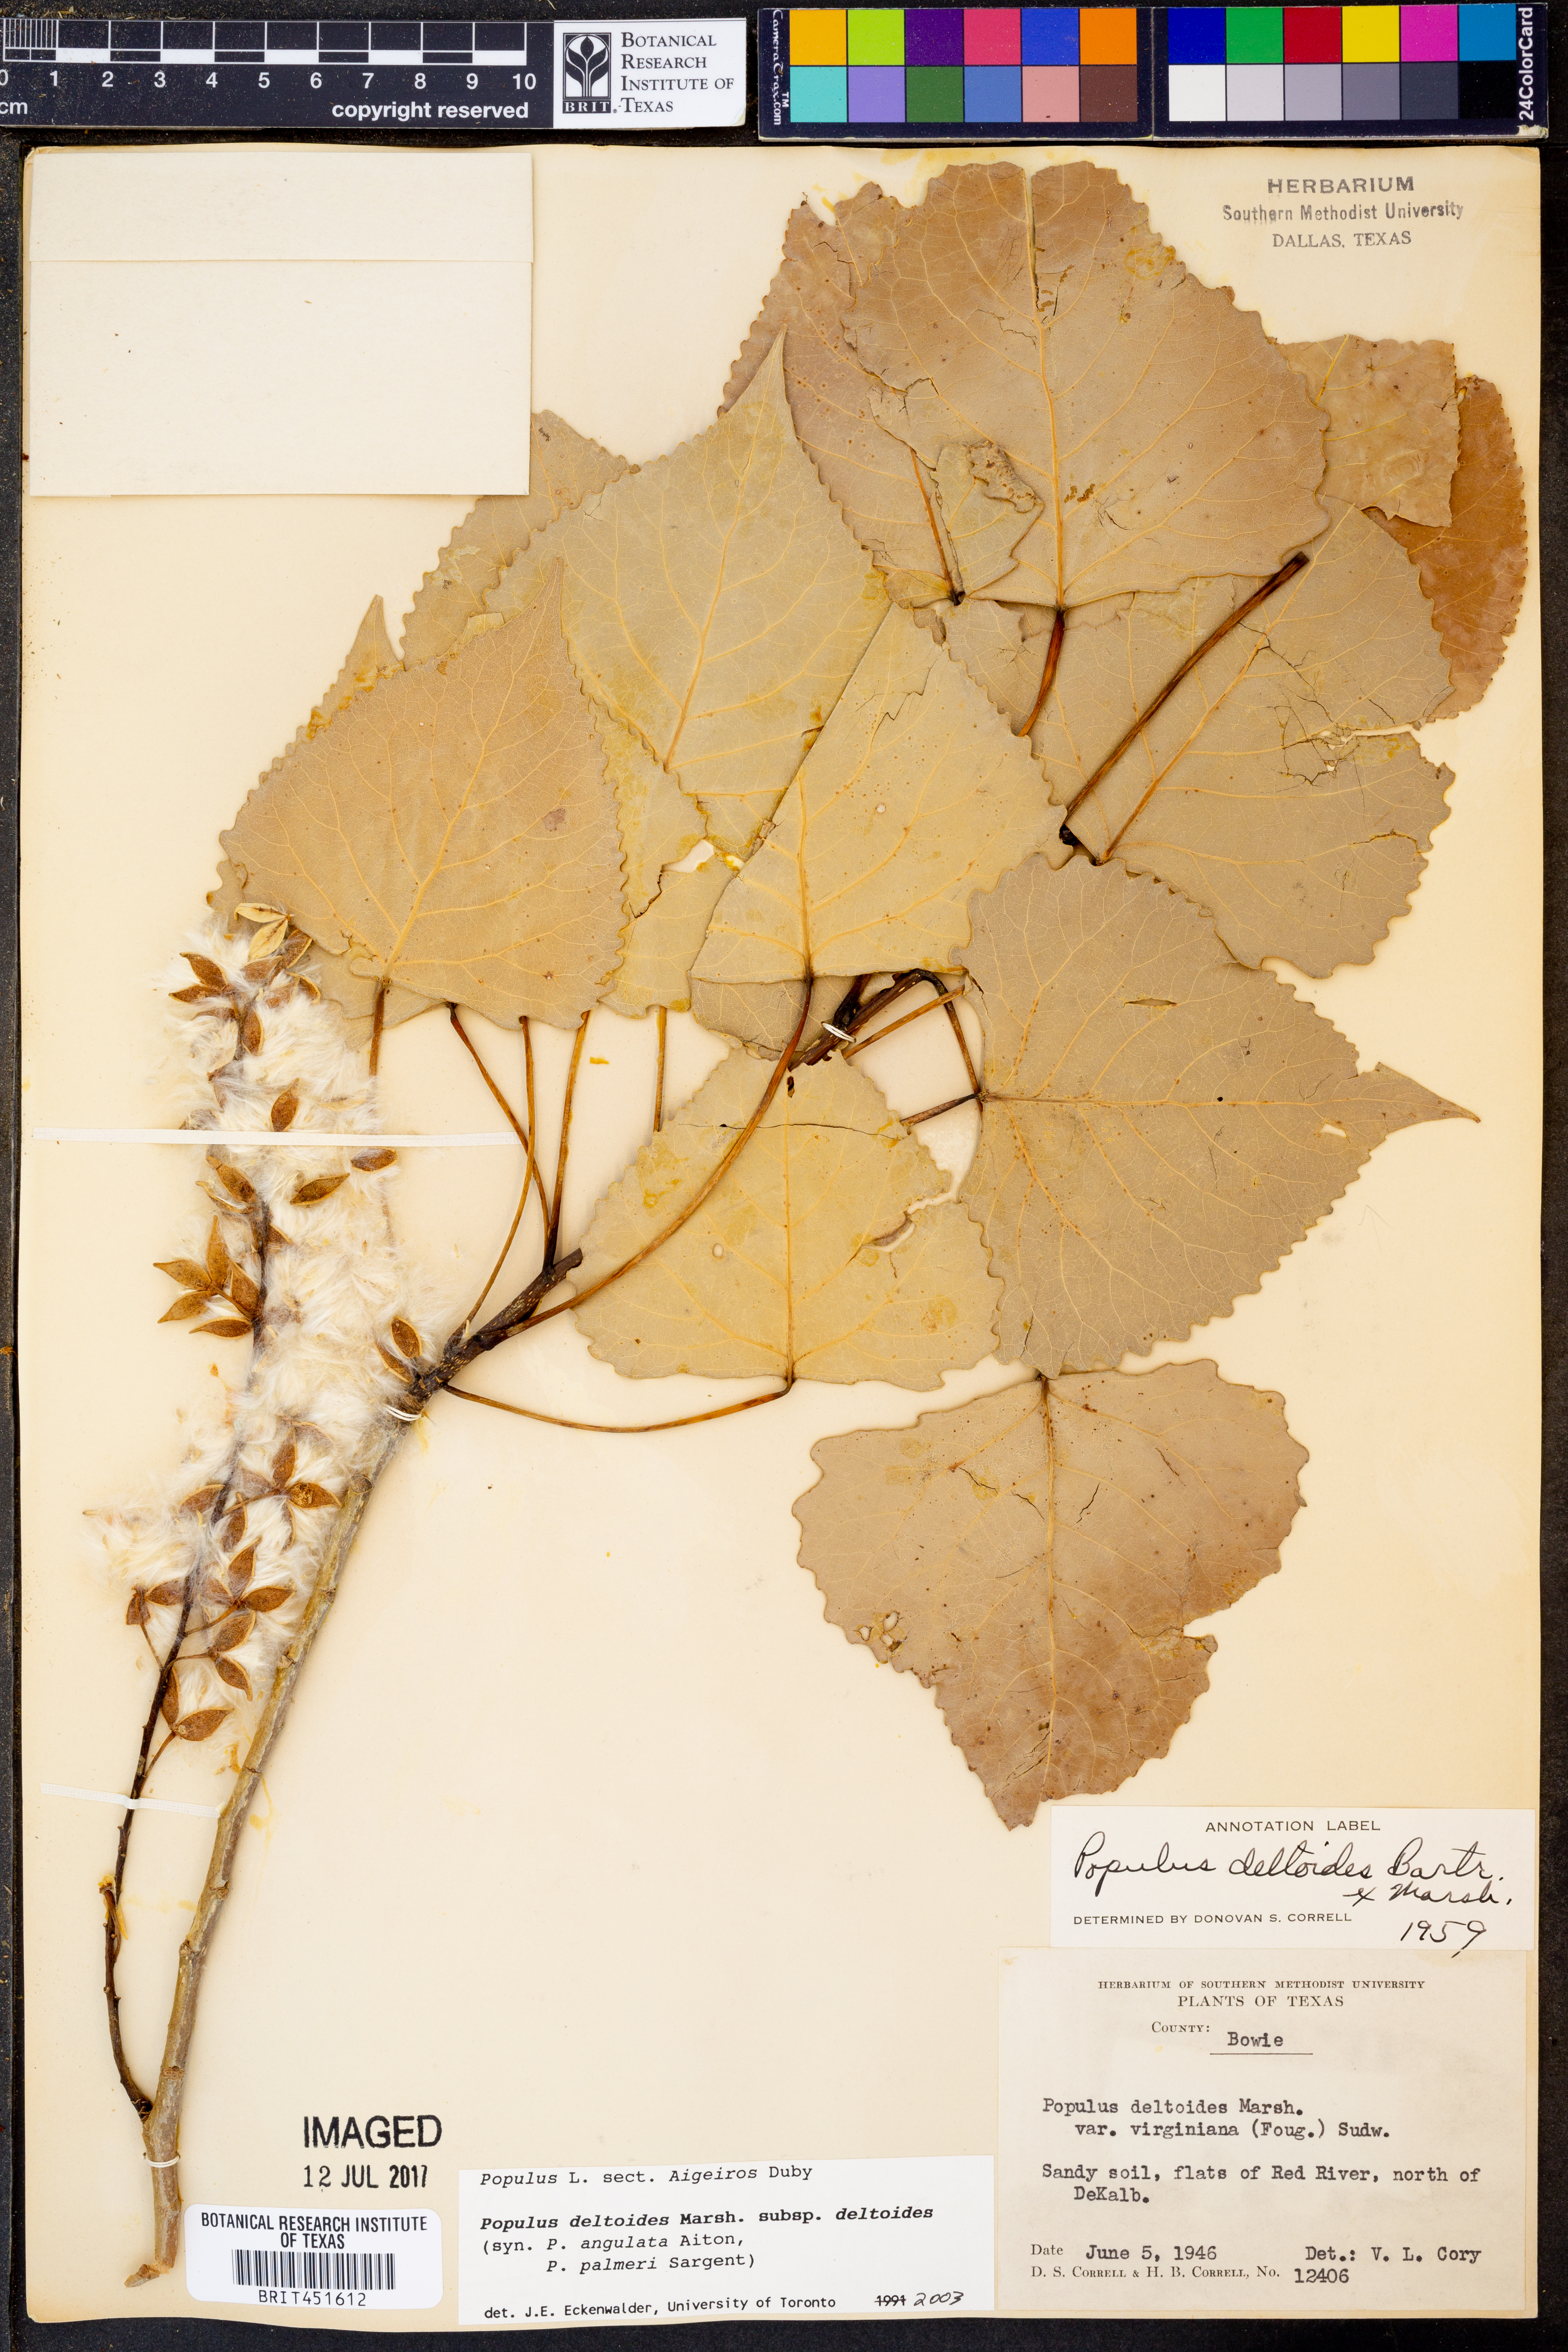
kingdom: Plantae
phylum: Tracheophyta
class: Magnoliopsida
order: Malpighiales
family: Salicaceae
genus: Populus
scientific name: Populus deltoides
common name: Eastern cottonwood
